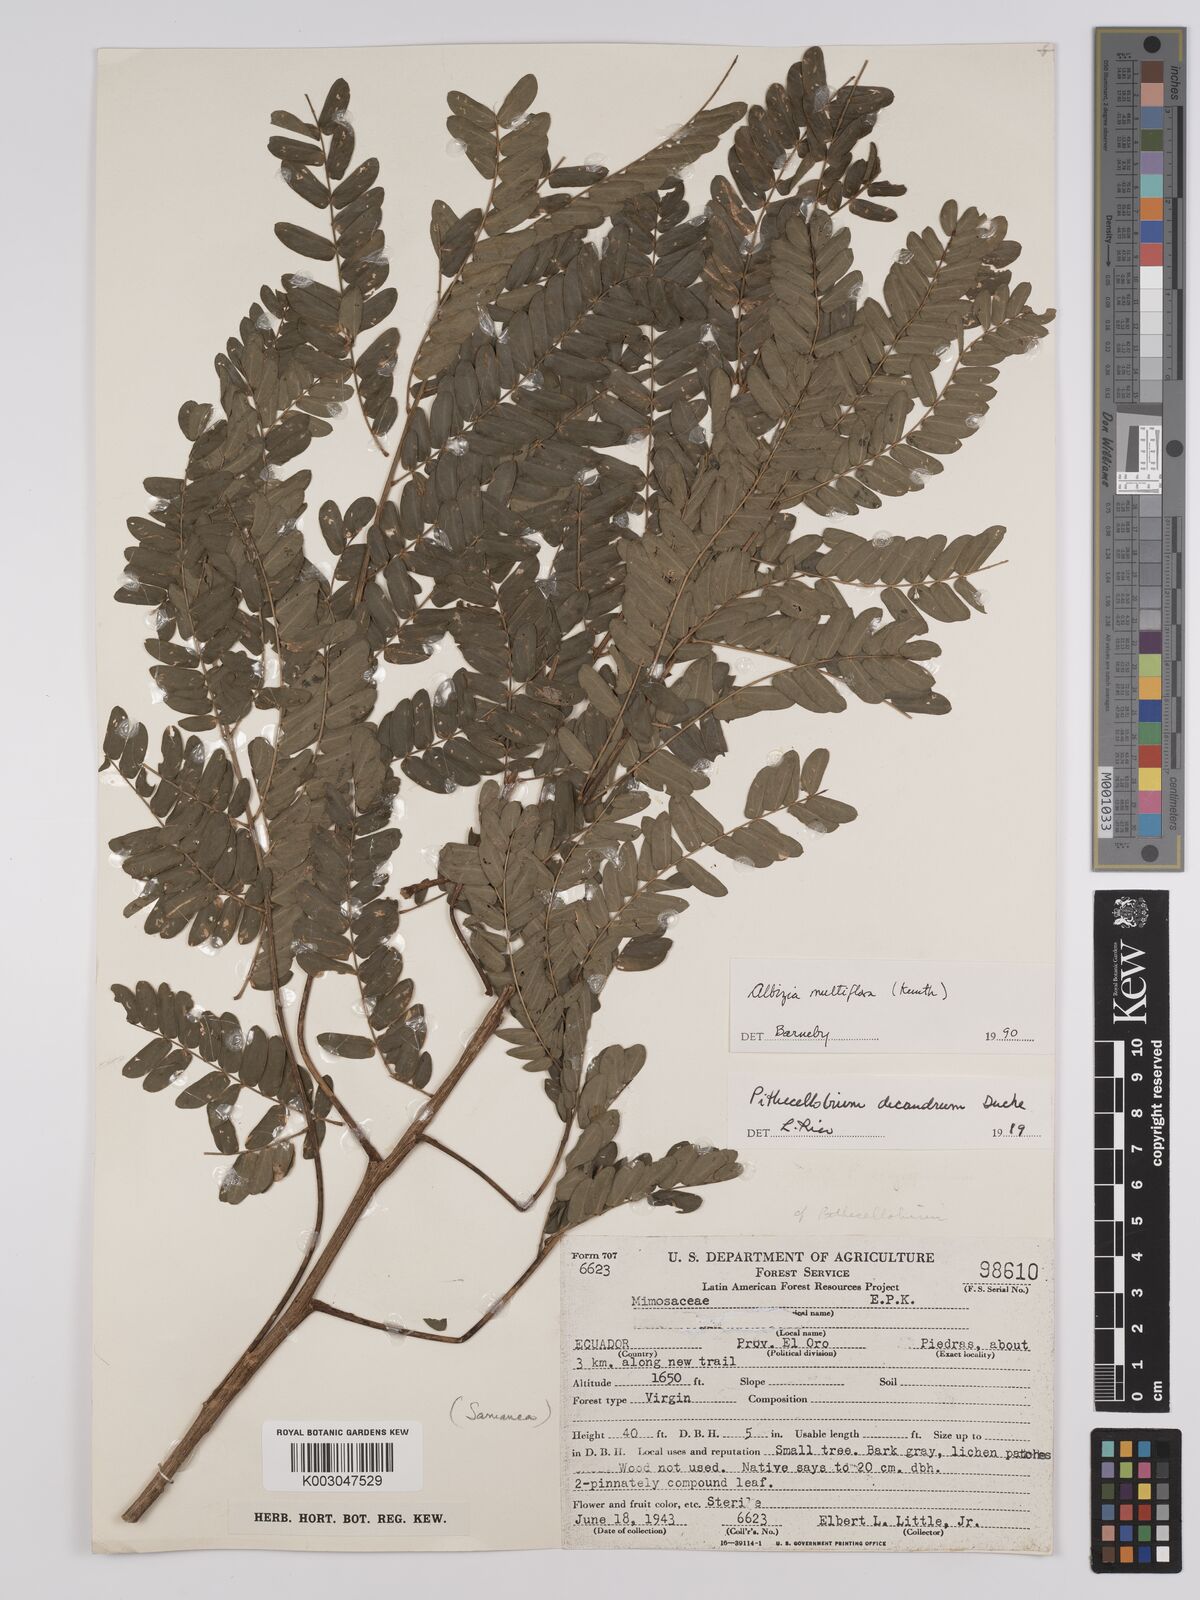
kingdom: Plantae
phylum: Tracheophyta
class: Magnoliopsida
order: Fabales
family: Fabaceae
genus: Albizia
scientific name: Albizia multiflora
